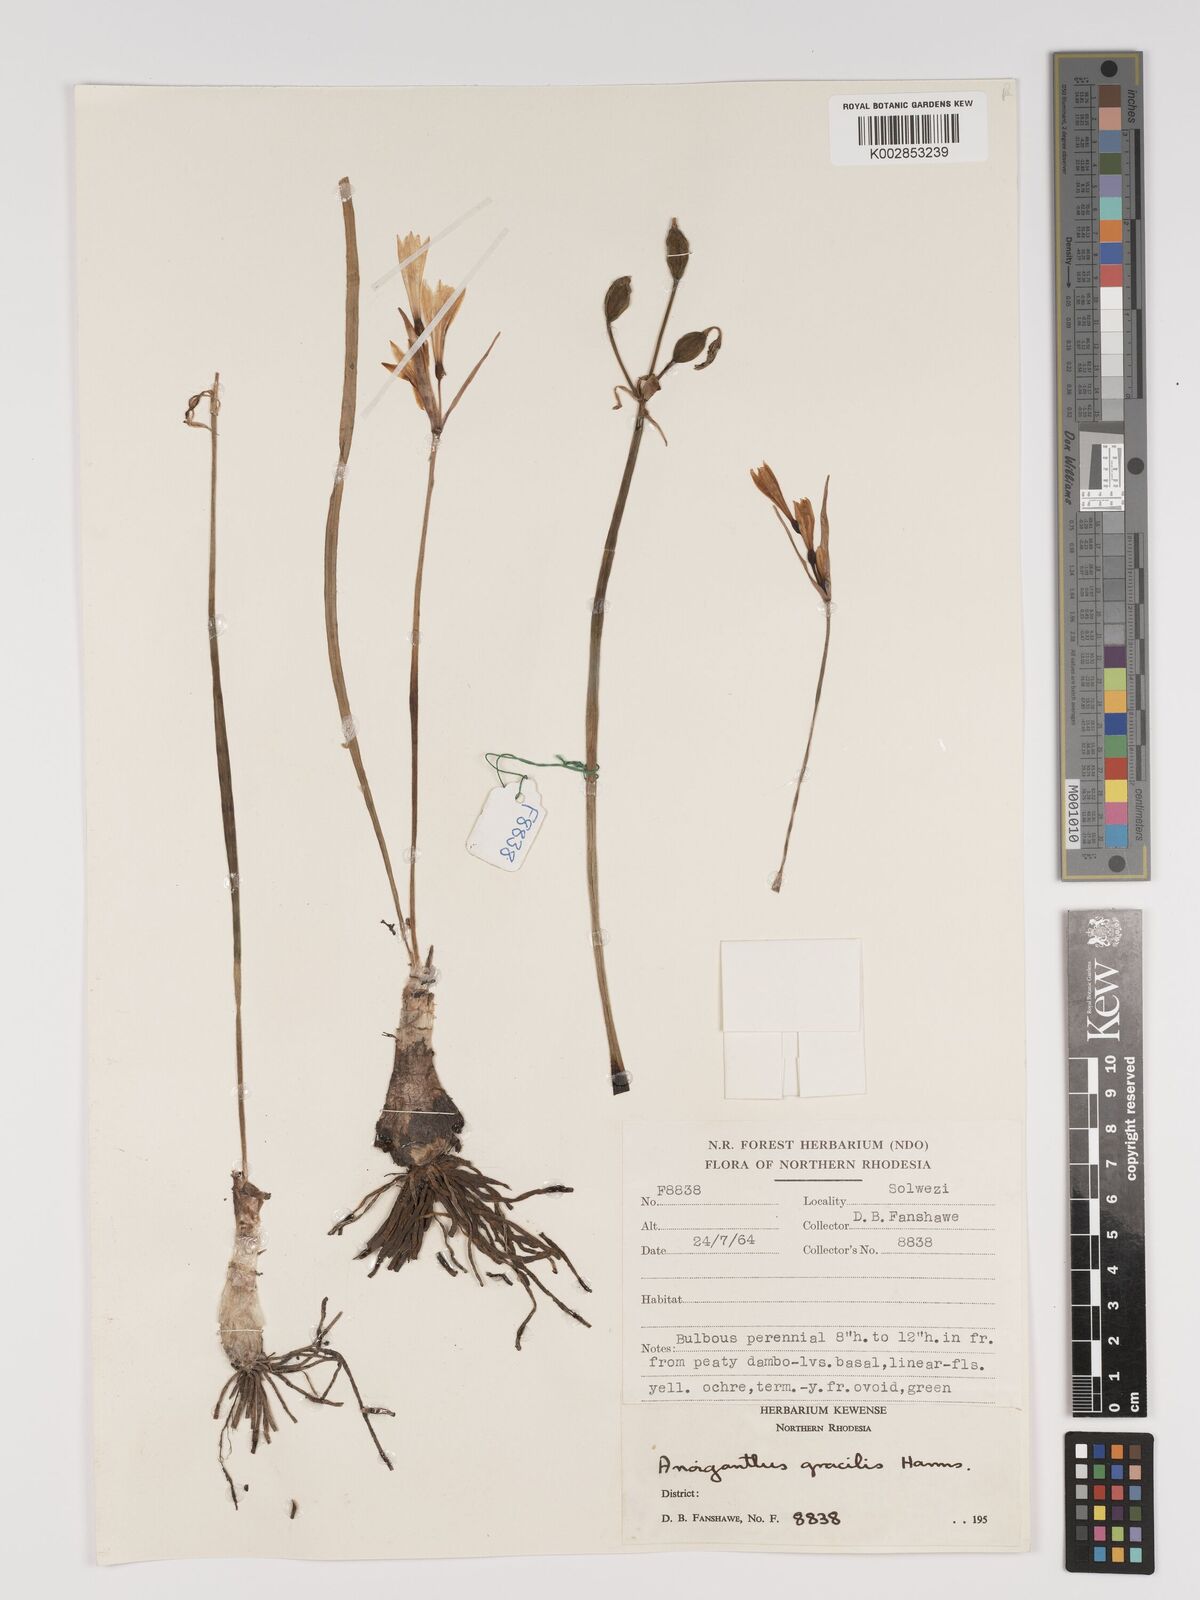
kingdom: Plantae
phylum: Tracheophyta
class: Liliopsida
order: Asparagales
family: Amaryllidaceae
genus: Cyrtanthus
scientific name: Cyrtanthus breviflorus
